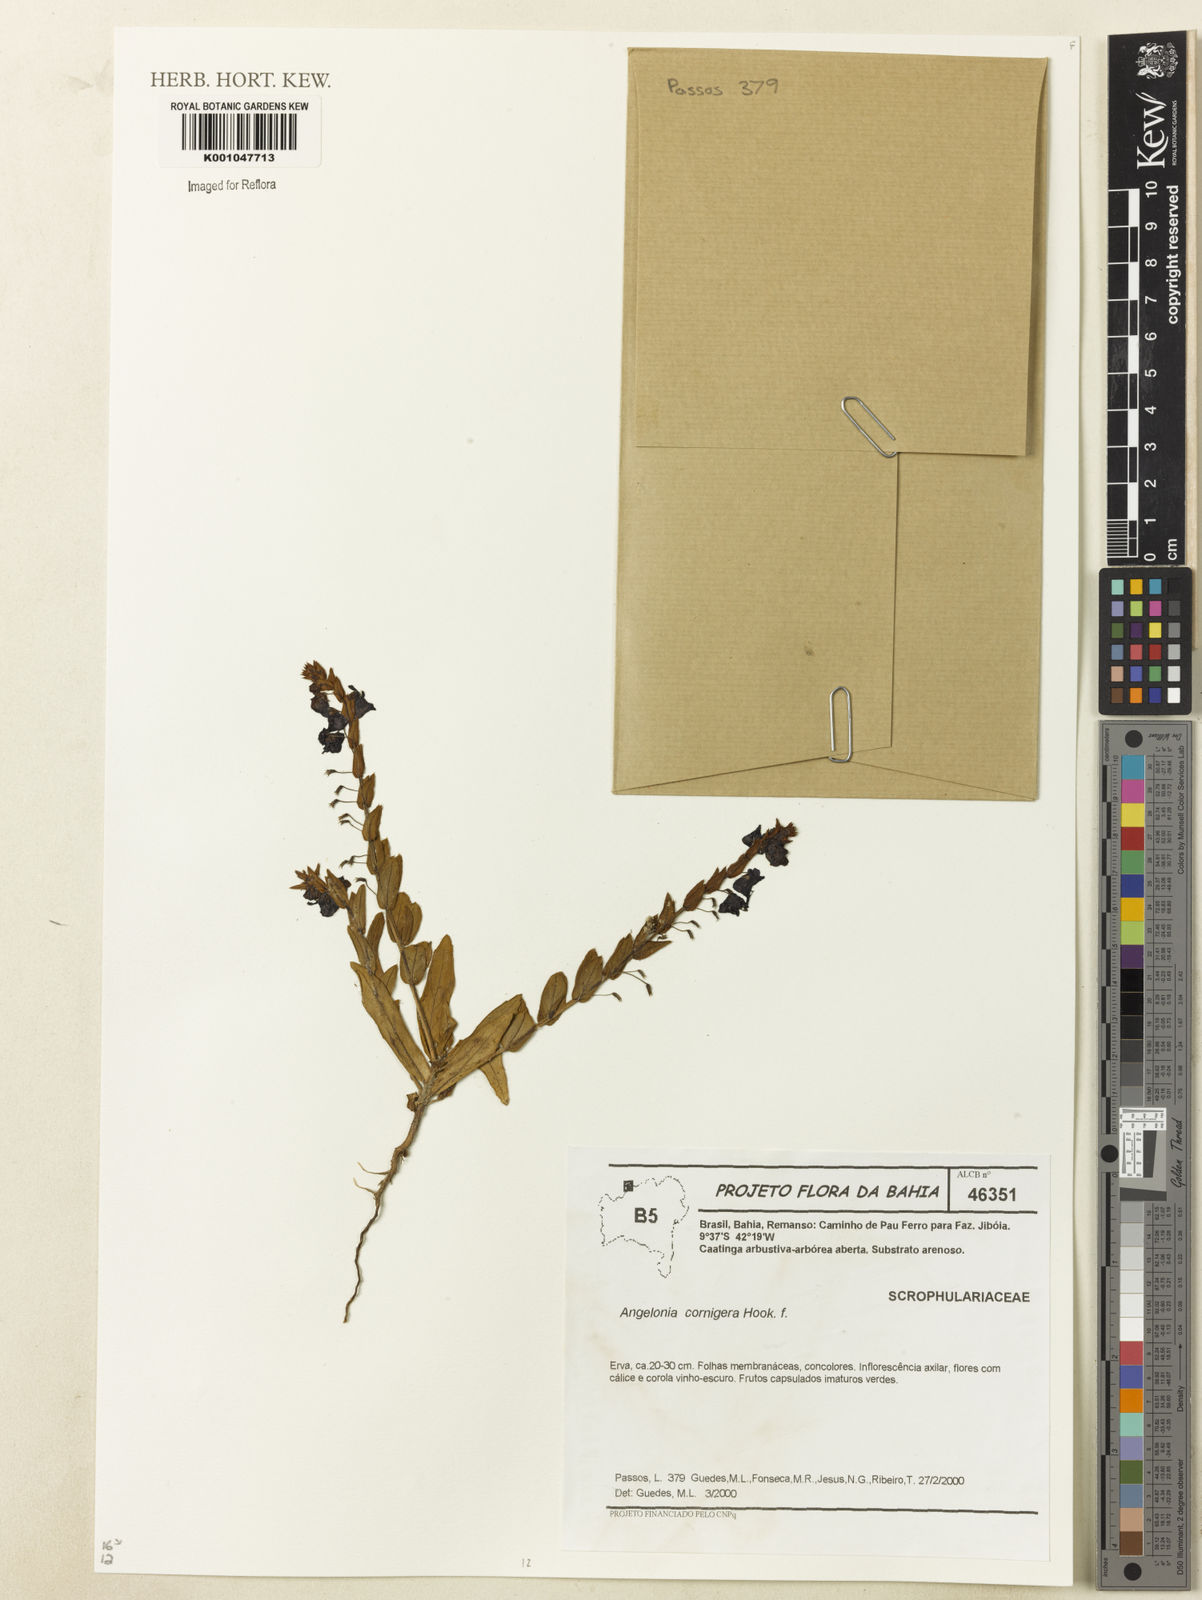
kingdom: Plantae
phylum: Tracheophyta
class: Magnoliopsida
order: Lamiales
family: Plantaginaceae
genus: Angelonia
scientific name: Angelonia cornigera
